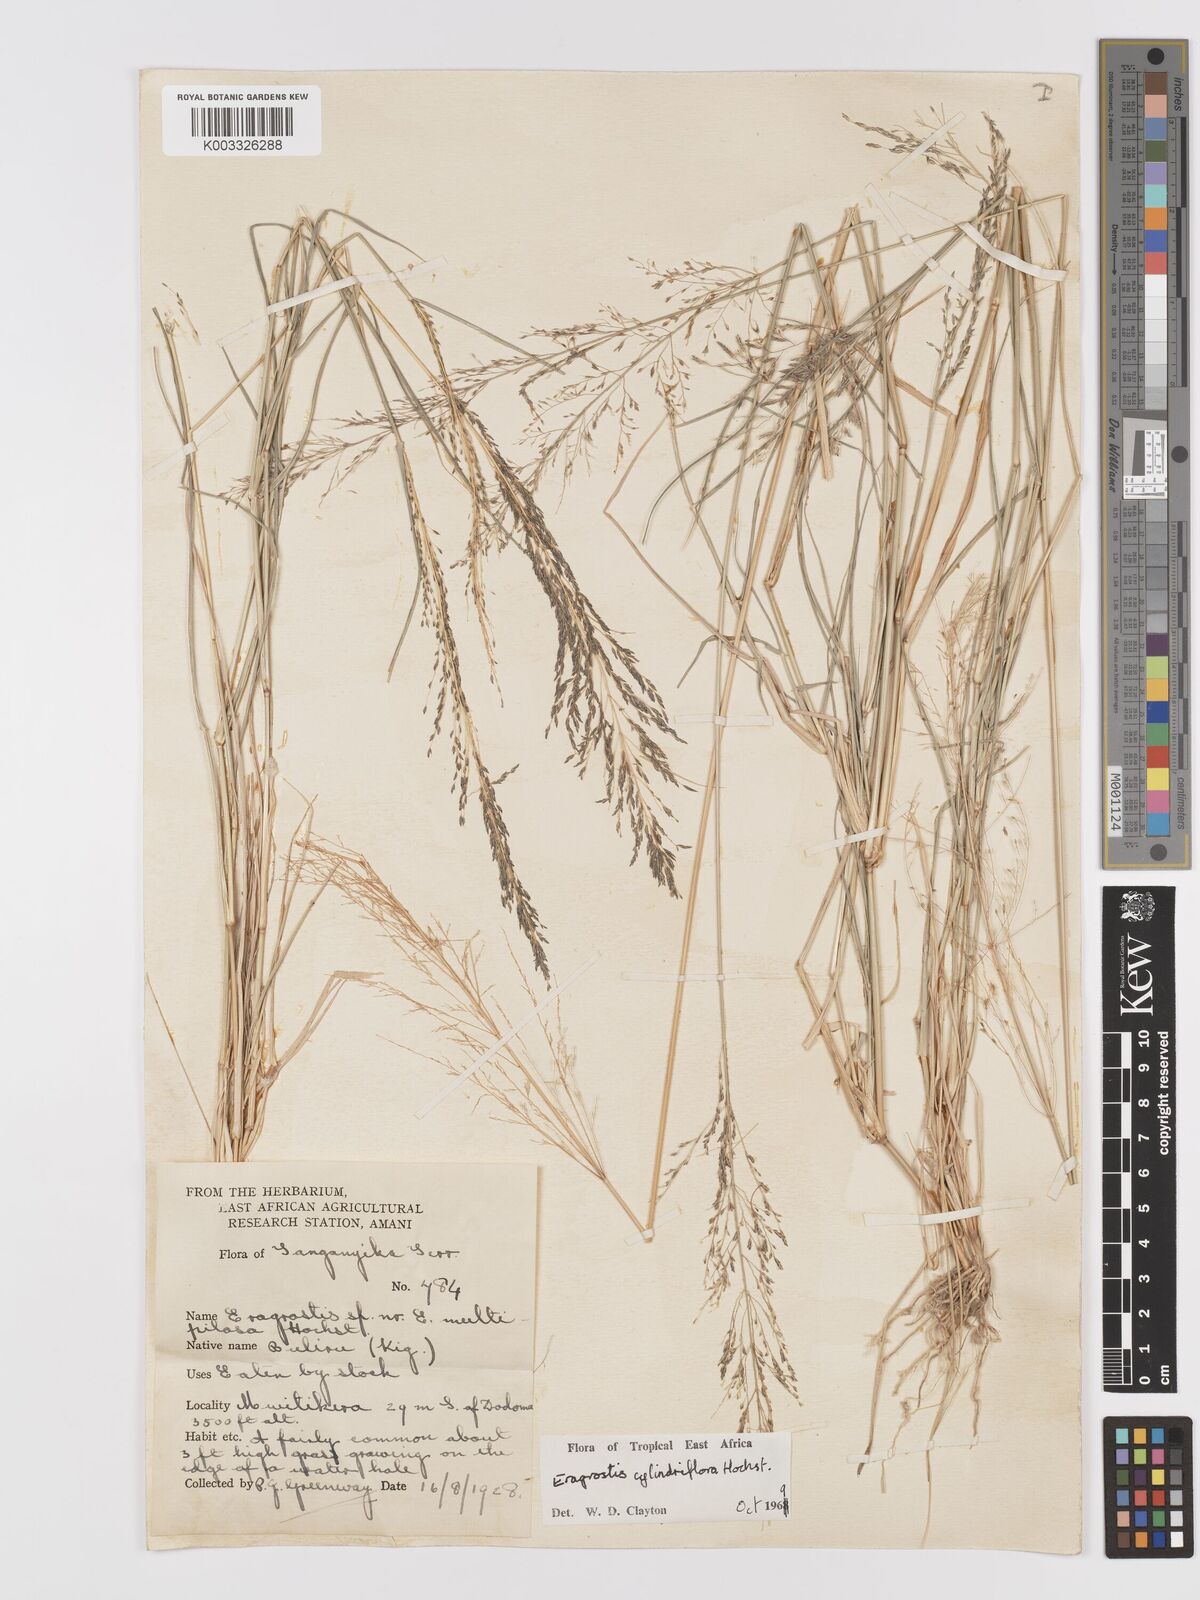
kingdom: Plantae
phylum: Tracheophyta
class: Liliopsida
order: Poales
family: Poaceae
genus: Eragrostis
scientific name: Eragrostis cylindriflora
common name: Cylinderflower lovegrass
